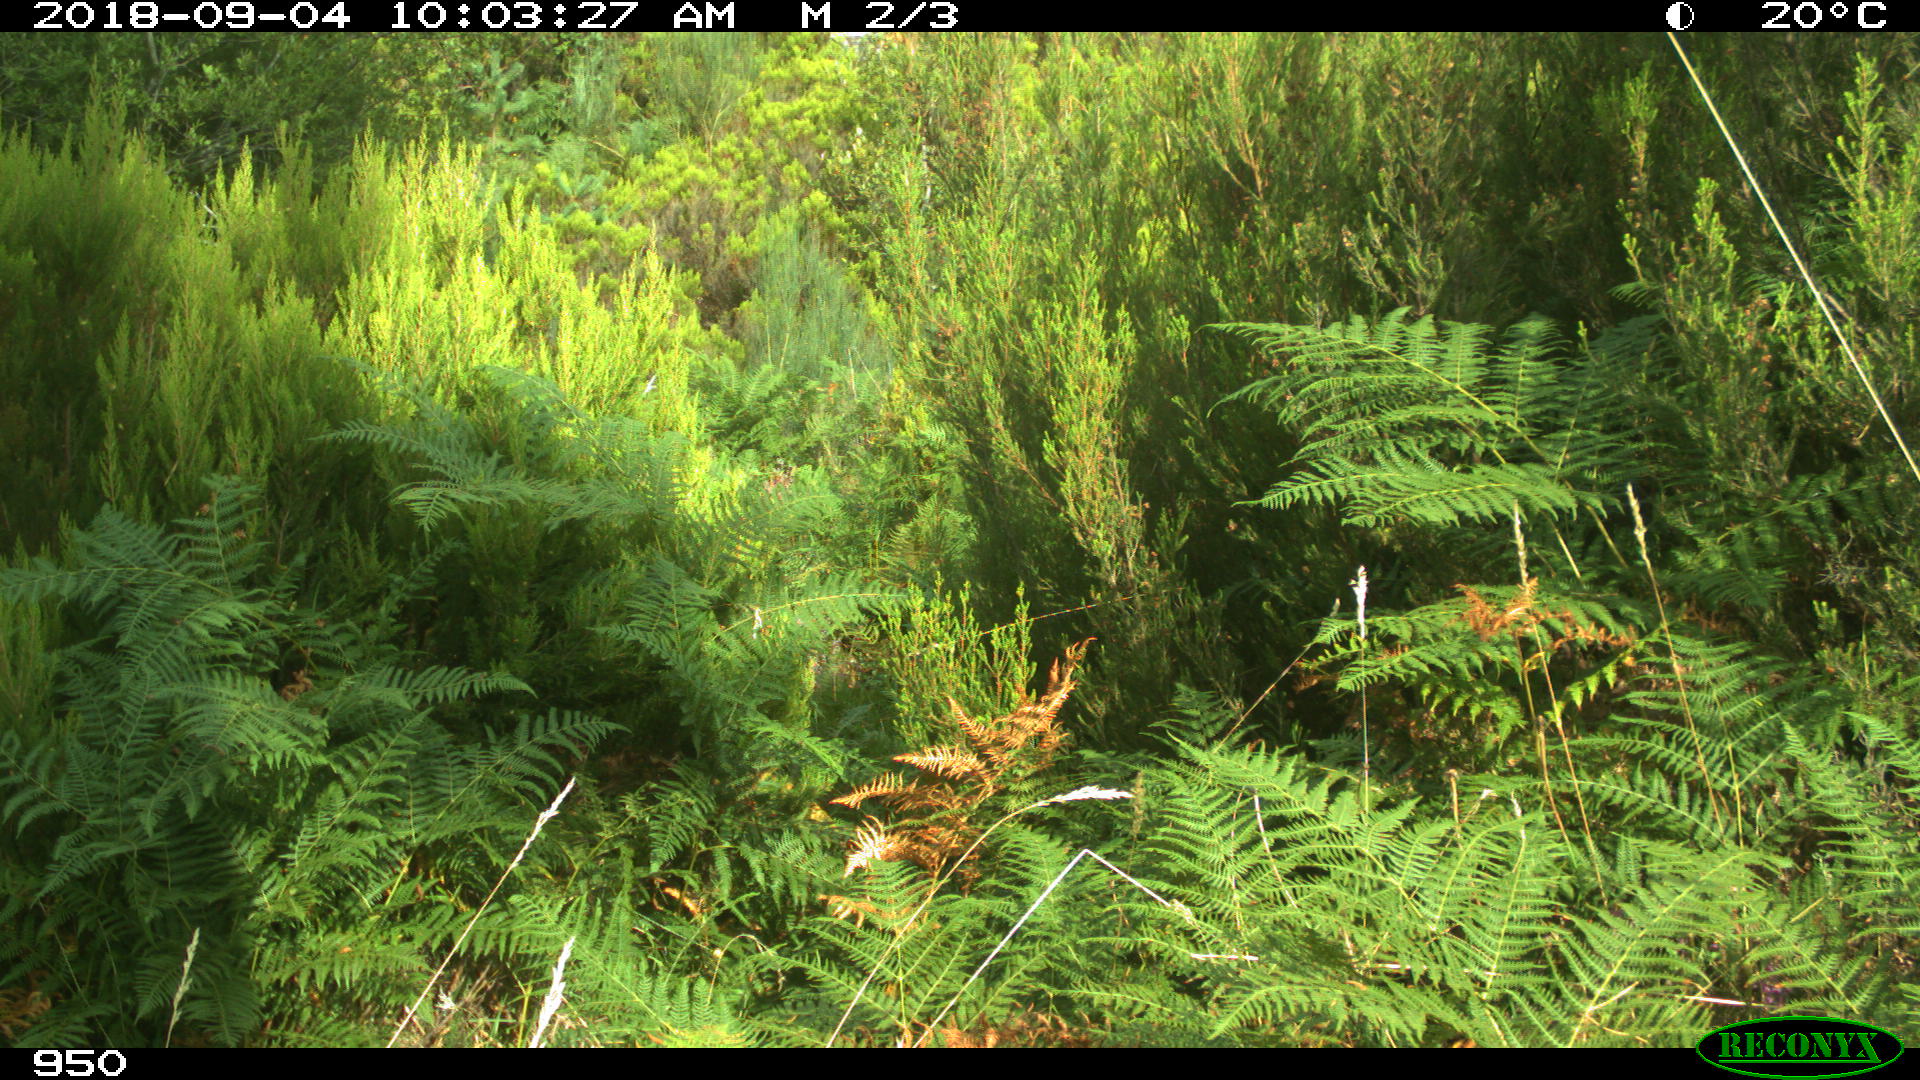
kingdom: Animalia
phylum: Chordata
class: Mammalia
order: Perissodactyla
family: Equidae
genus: Equus
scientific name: Equus caballus
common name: Horse
